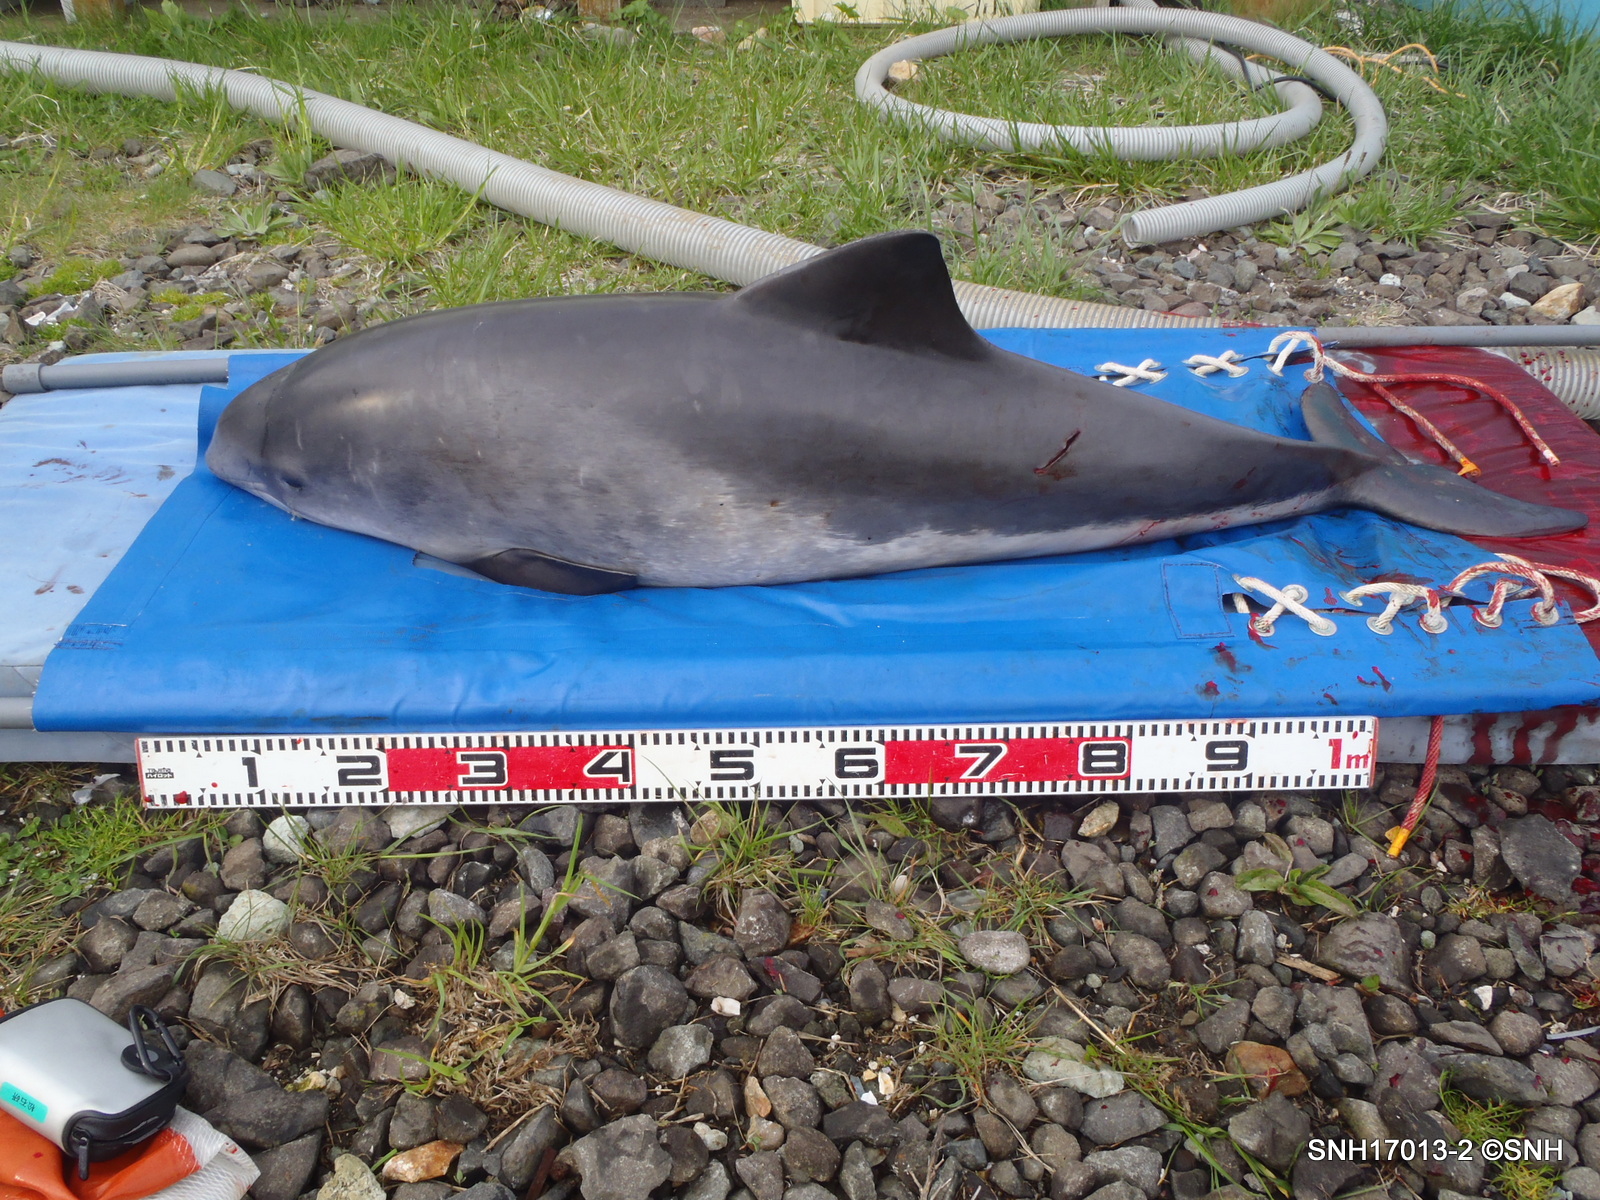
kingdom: Animalia
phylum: Chordata
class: Mammalia
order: Cetacea
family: Phocoenidae
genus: Phocoena
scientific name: Phocoena phocoena
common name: Harbour porpoise
